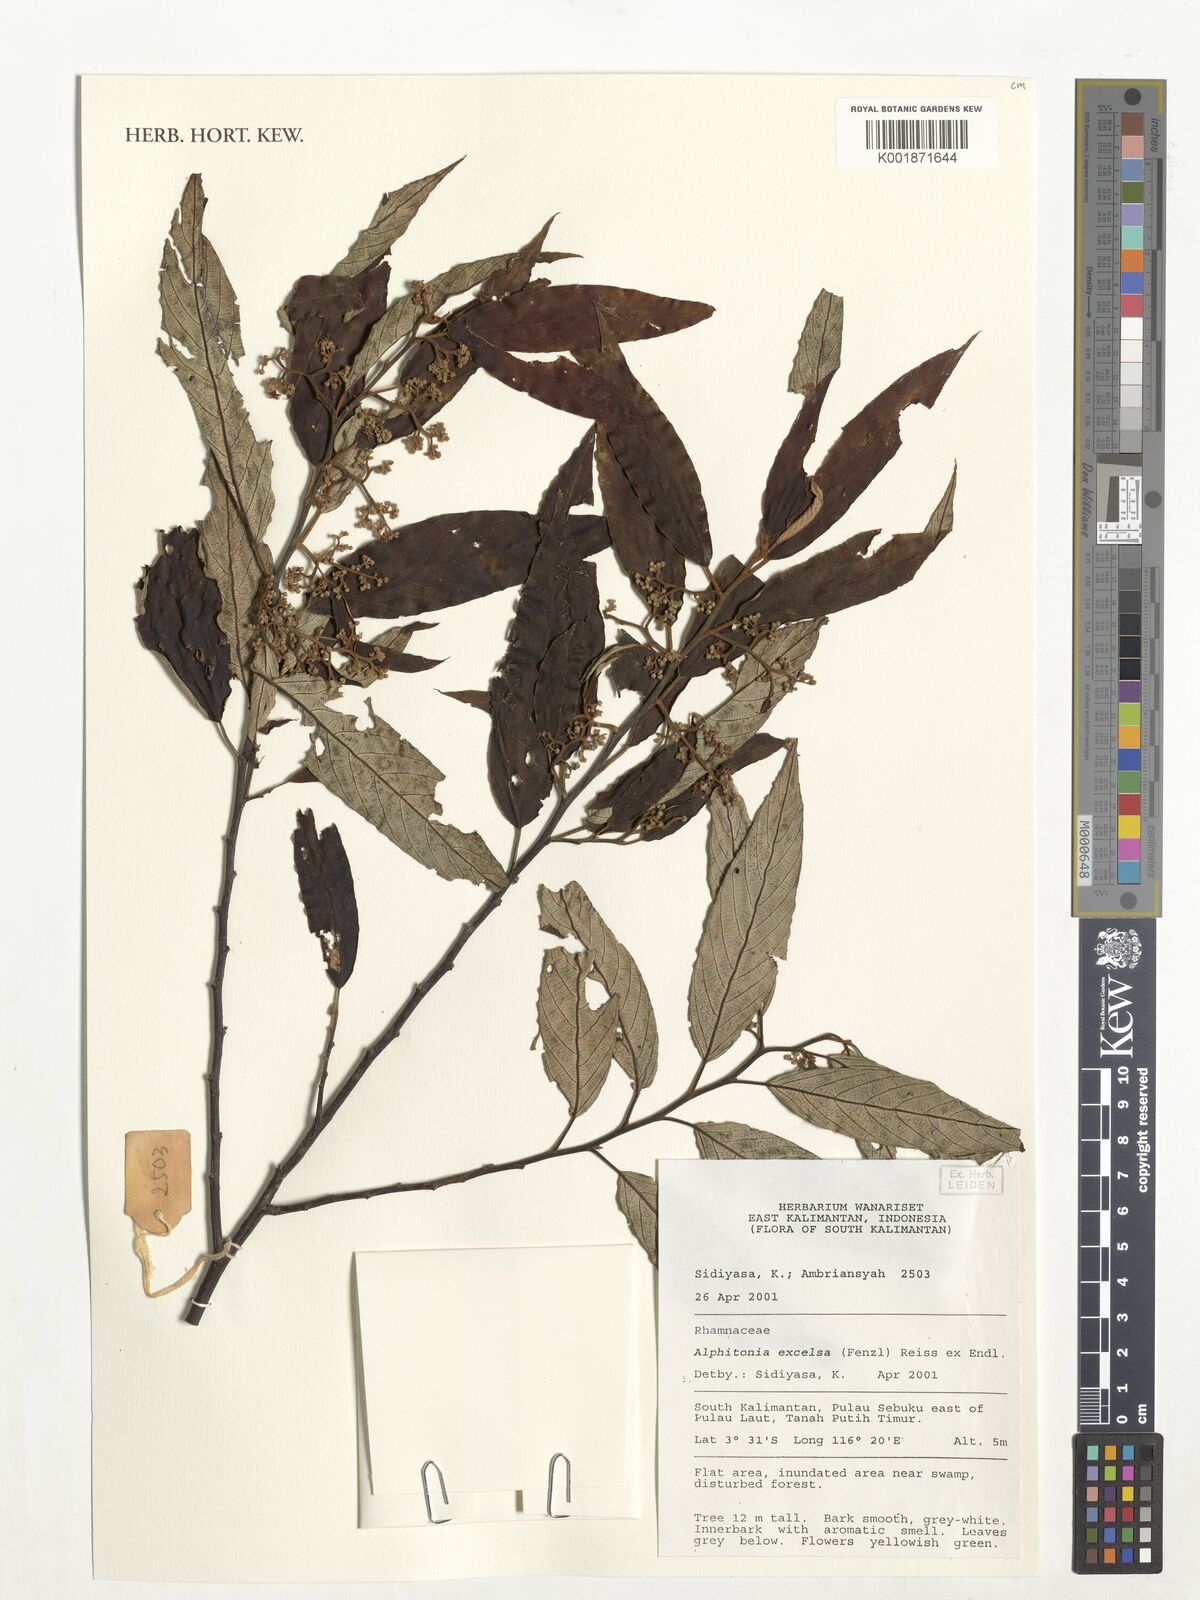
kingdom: Plantae
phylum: Tracheophyta
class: Magnoliopsida
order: Rosales
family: Rhamnaceae
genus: Alphitonia
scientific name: Alphitonia excelsa
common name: Red ash
